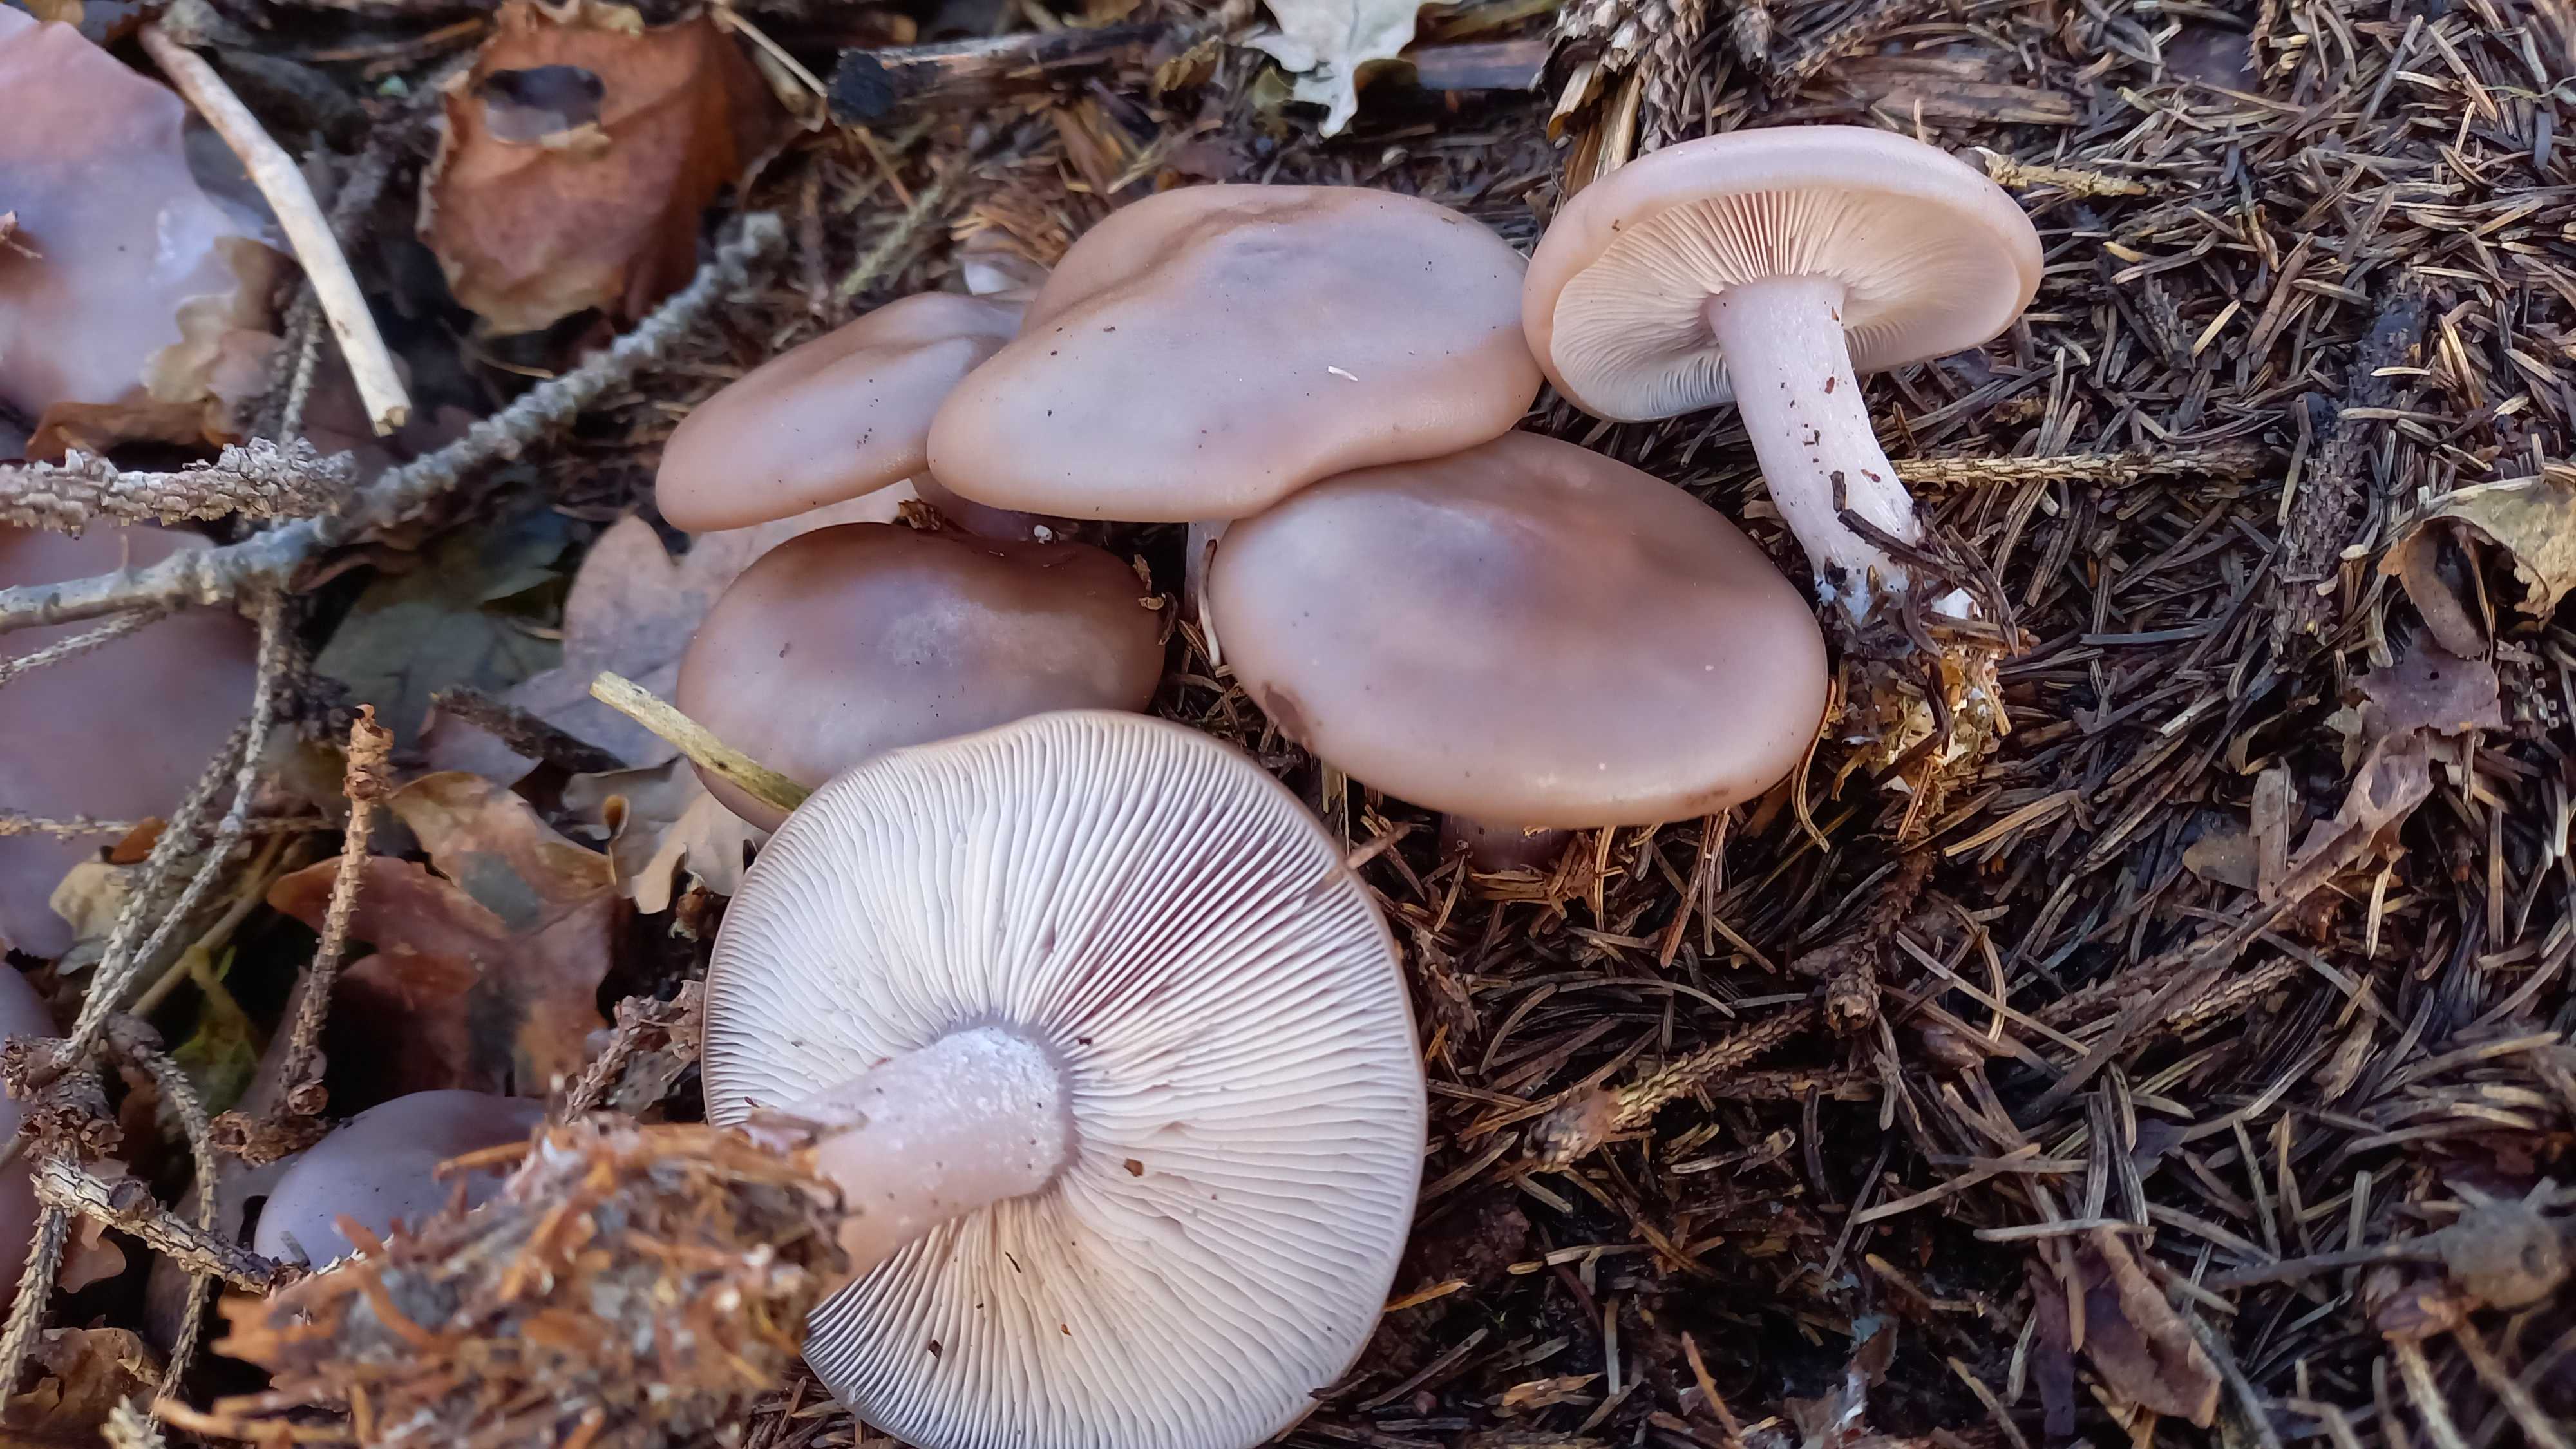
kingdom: Fungi
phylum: Basidiomycota
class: Agaricomycetes
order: Agaricales
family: Tricholomataceae
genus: Lepista
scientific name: Lepista nuda
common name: violet hekseringshat
